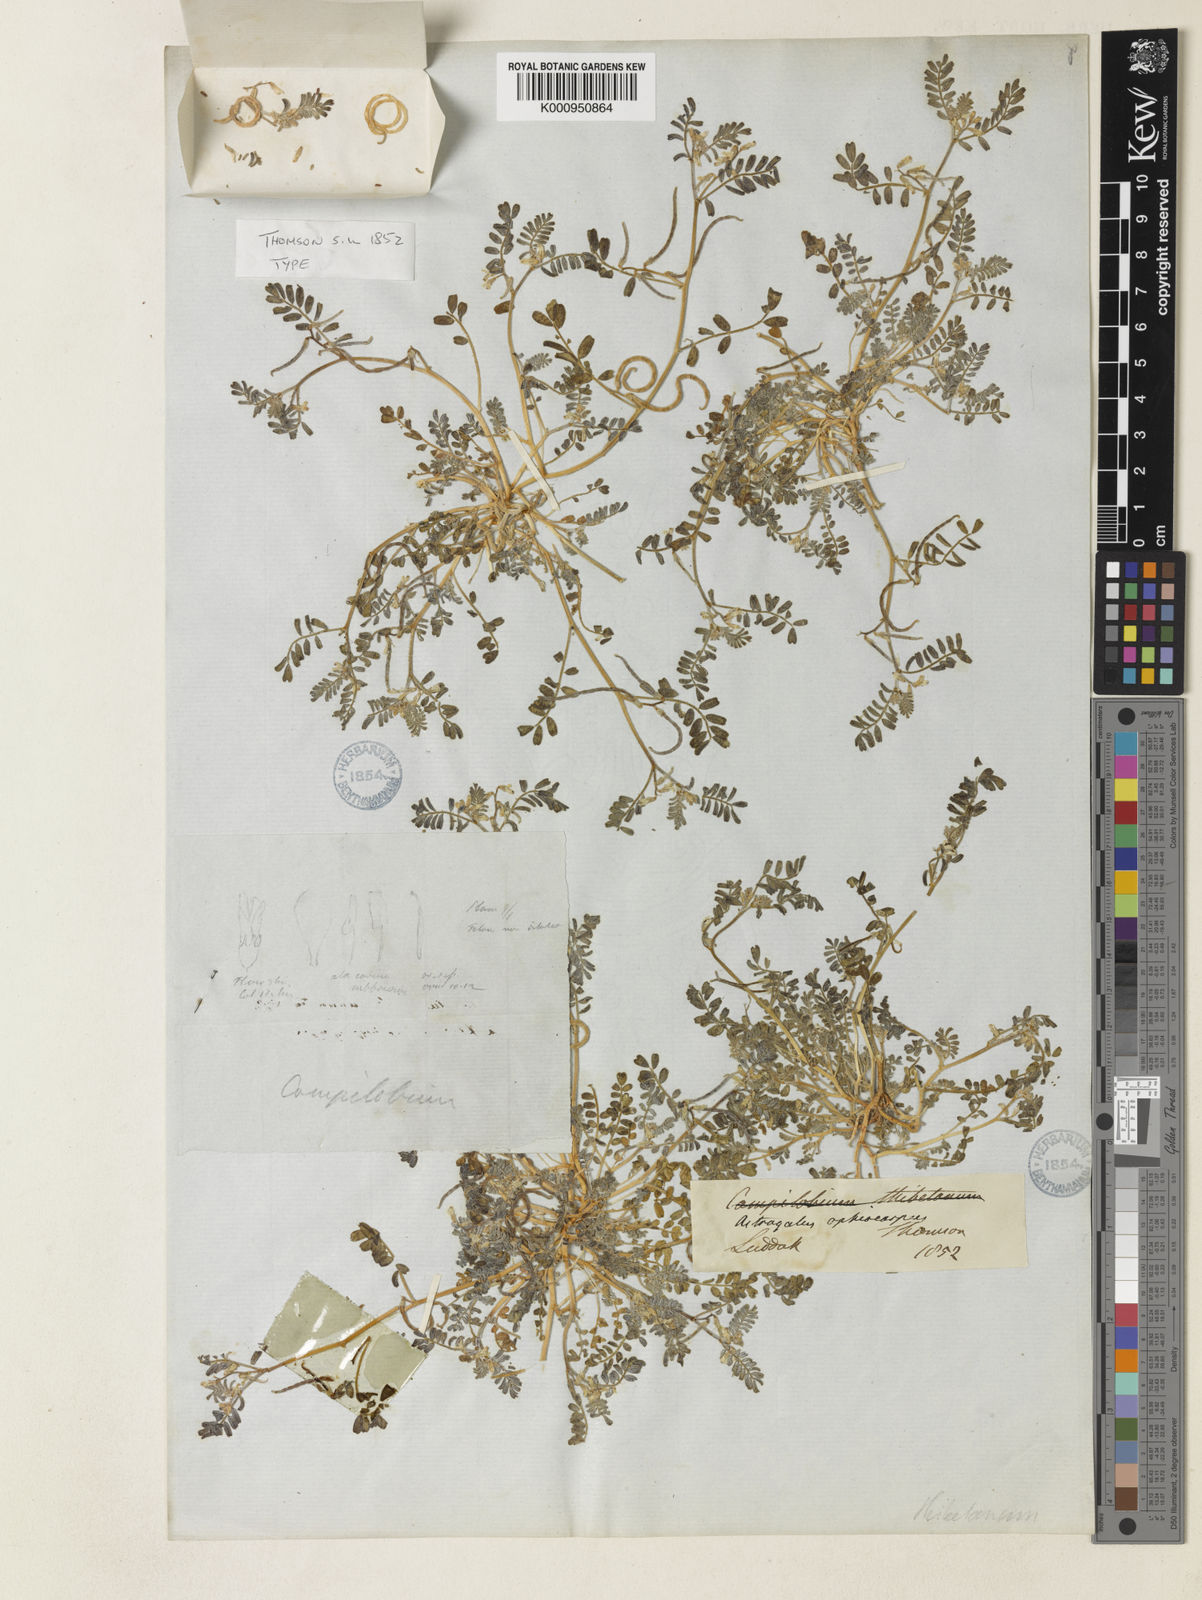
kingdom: Plantae
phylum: Tracheophyta
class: Magnoliopsida
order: Fabales
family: Fabaceae
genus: Astragalus
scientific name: Astragalus ophiocarpus
